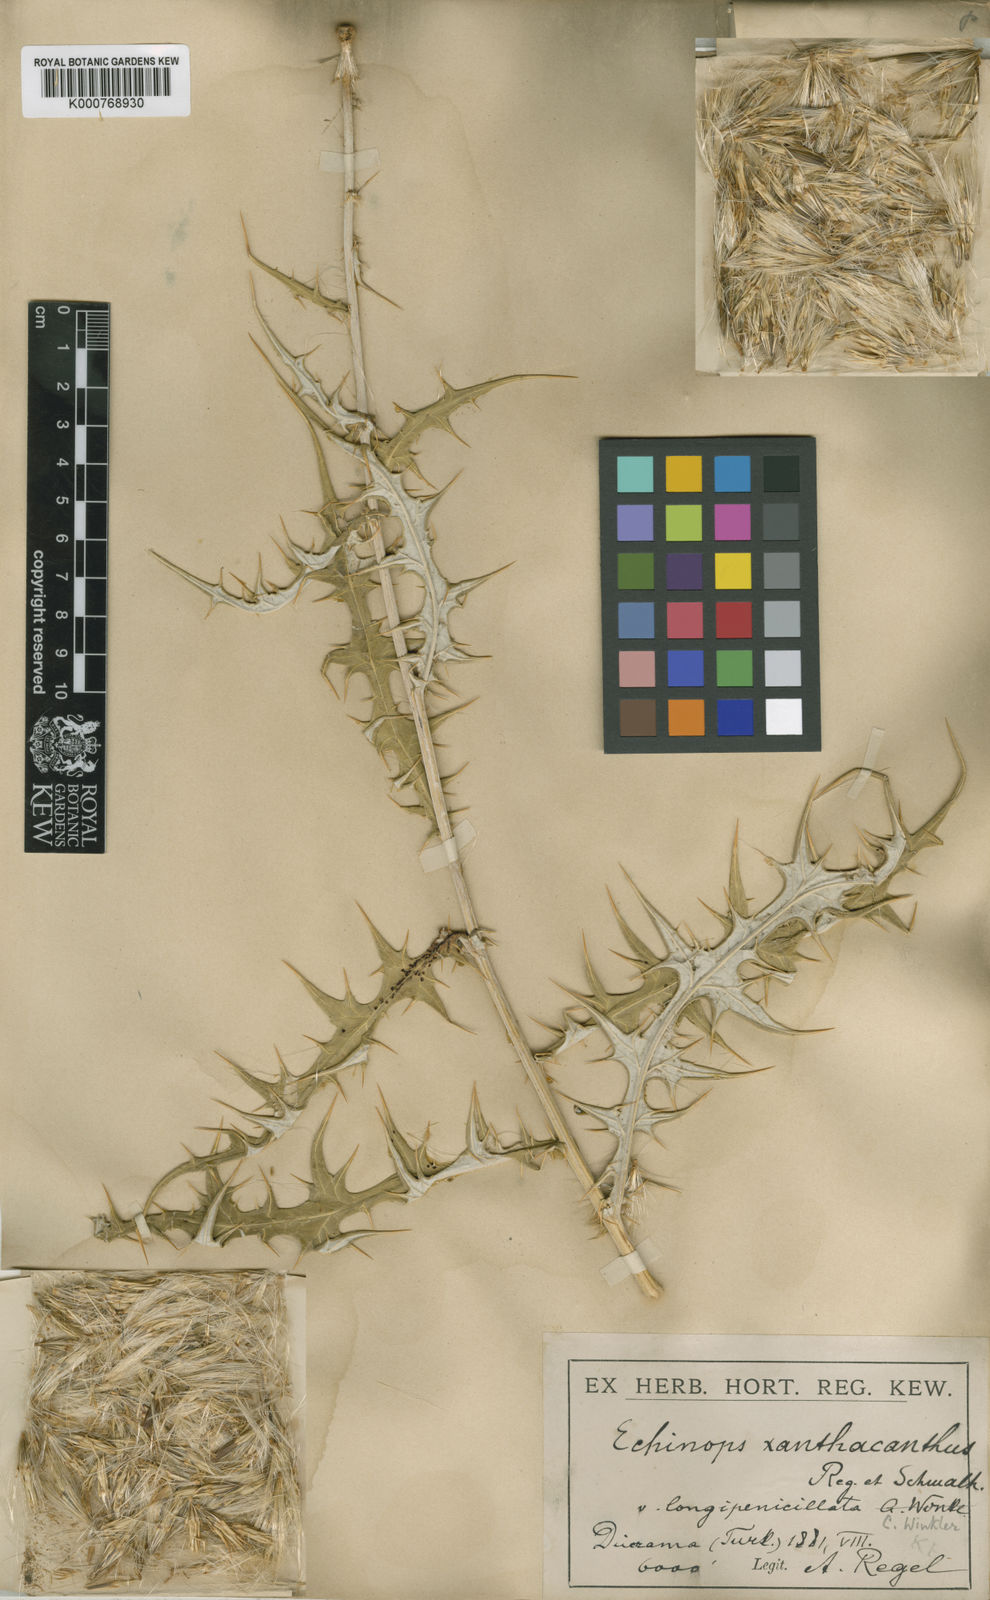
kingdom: Plantae
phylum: Tracheophyta
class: Magnoliopsida
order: Asterales
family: Asteraceae
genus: Echinops
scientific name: Echinops xanthacanthus
